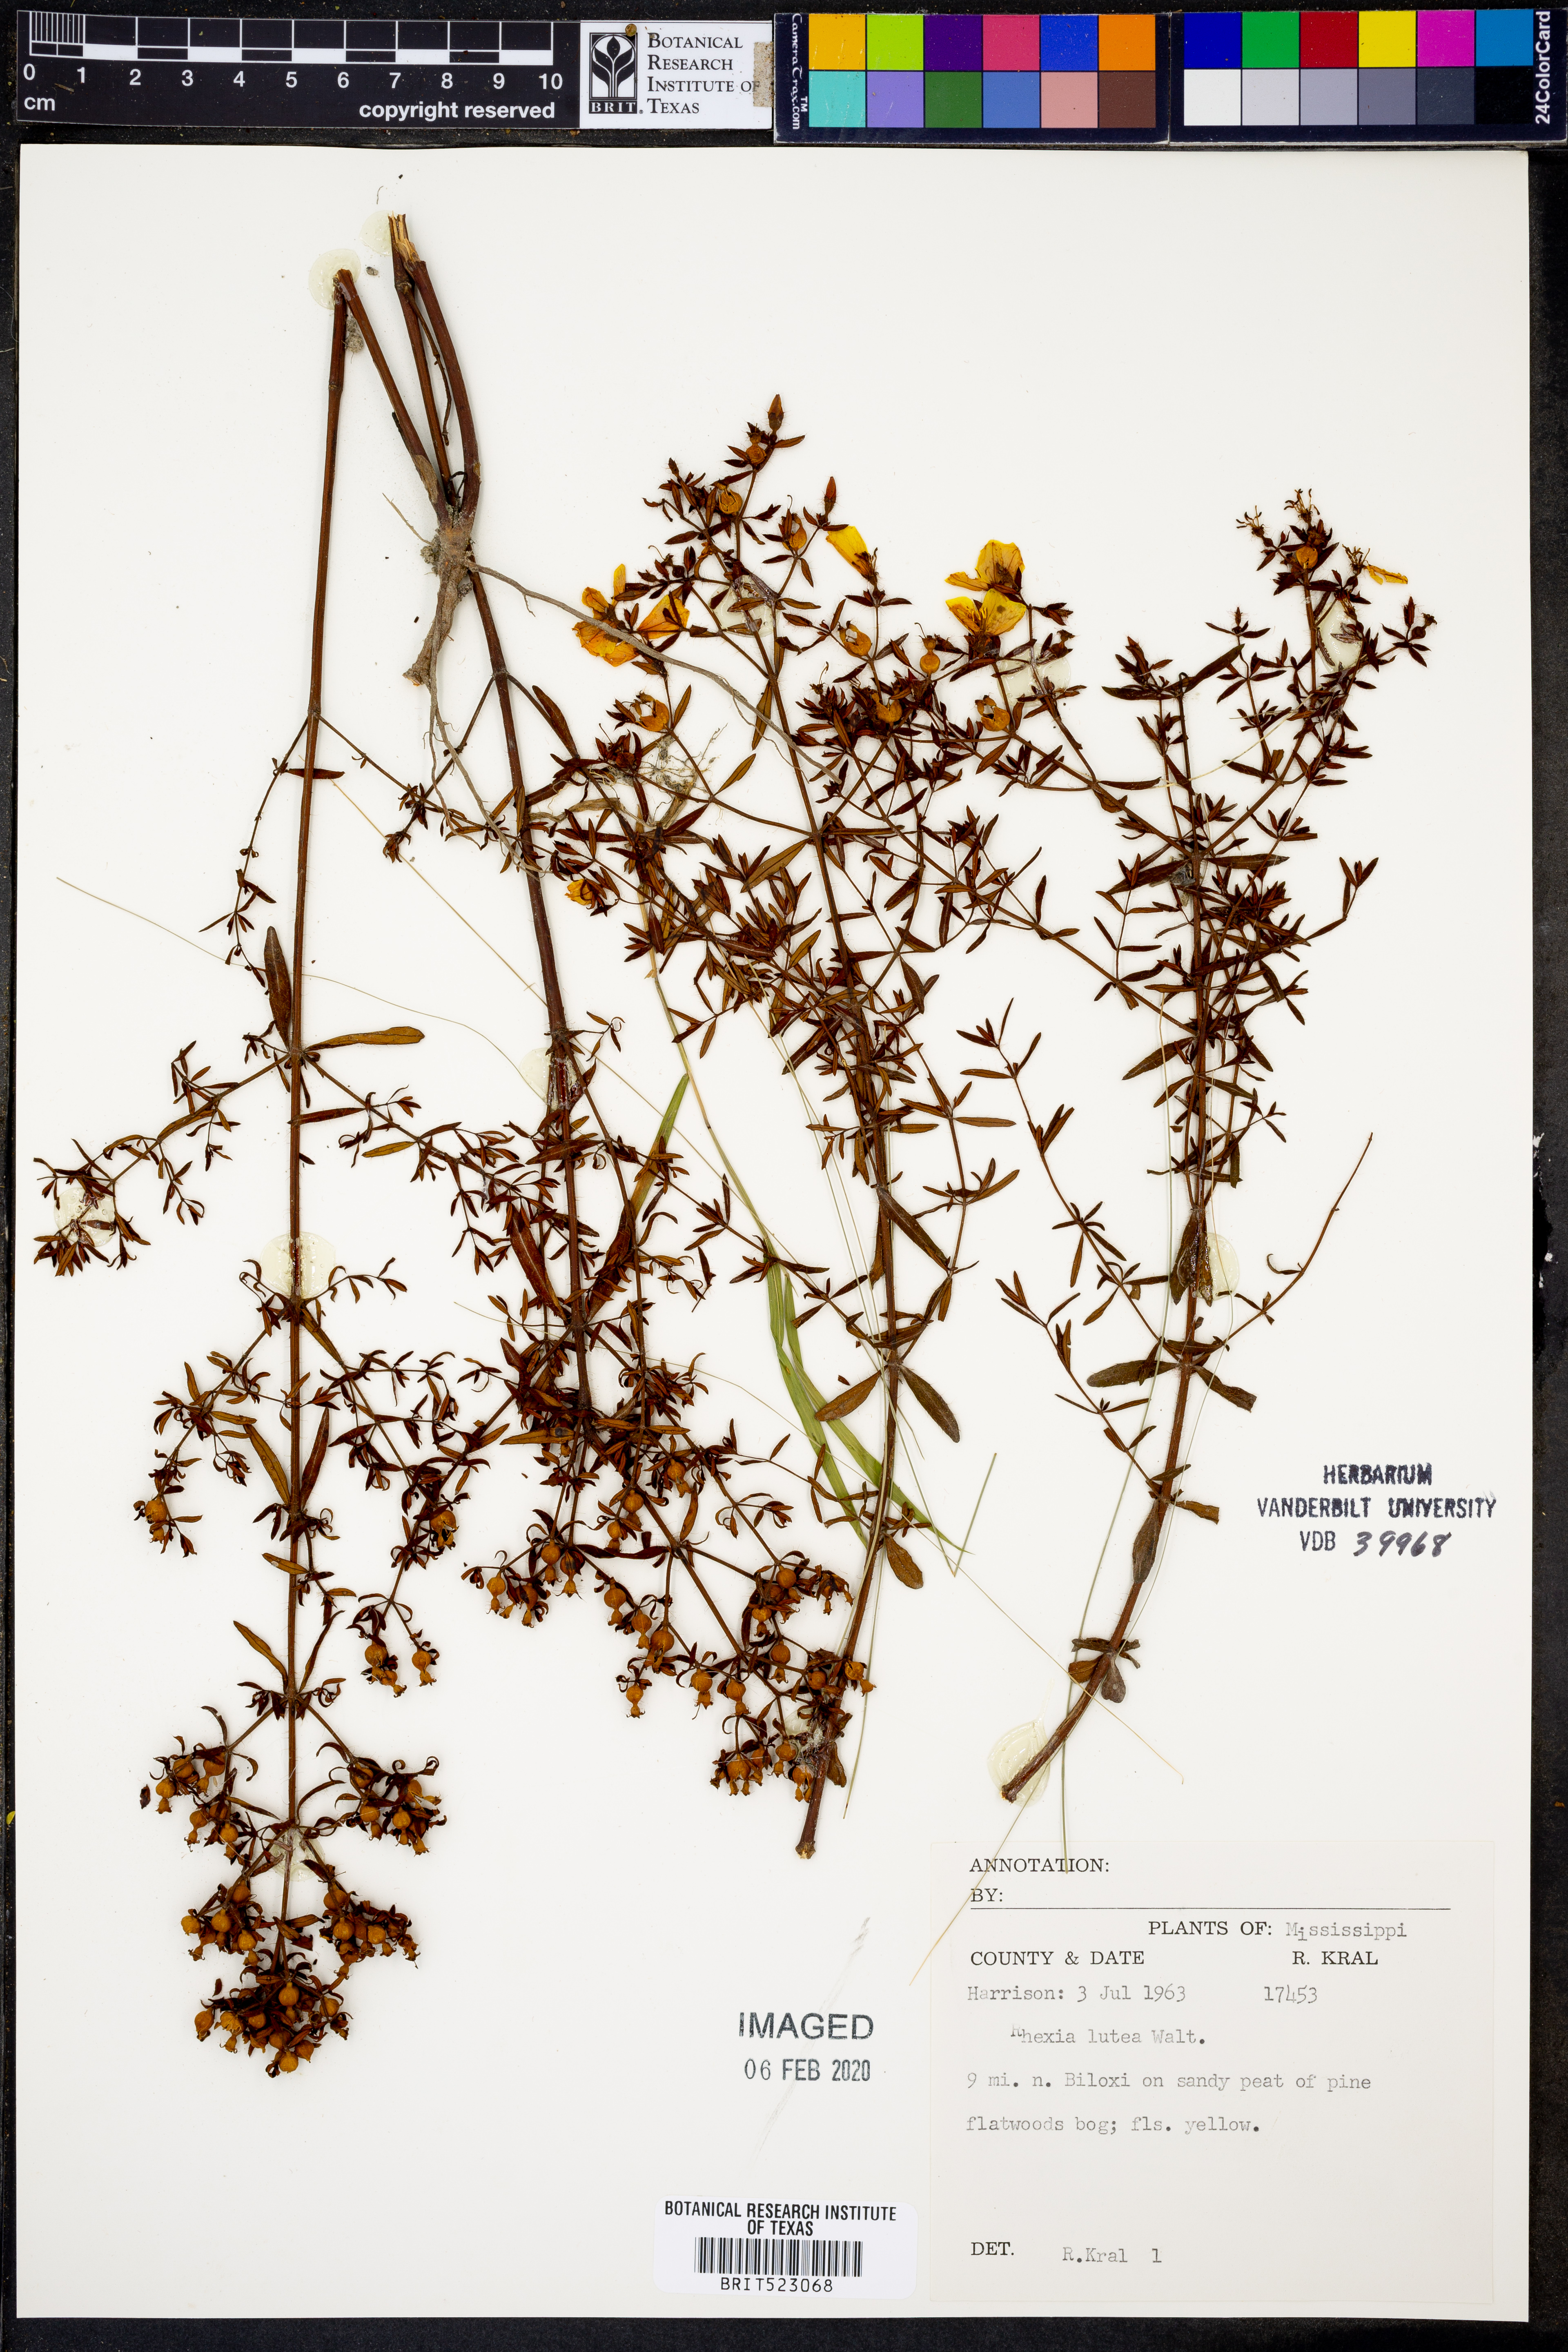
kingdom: Plantae
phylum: Tracheophyta
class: Magnoliopsida
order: Myrtales
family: Melastomataceae
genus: Rhexia
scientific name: Rhexia lutea
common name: Golden meadow-beauty
